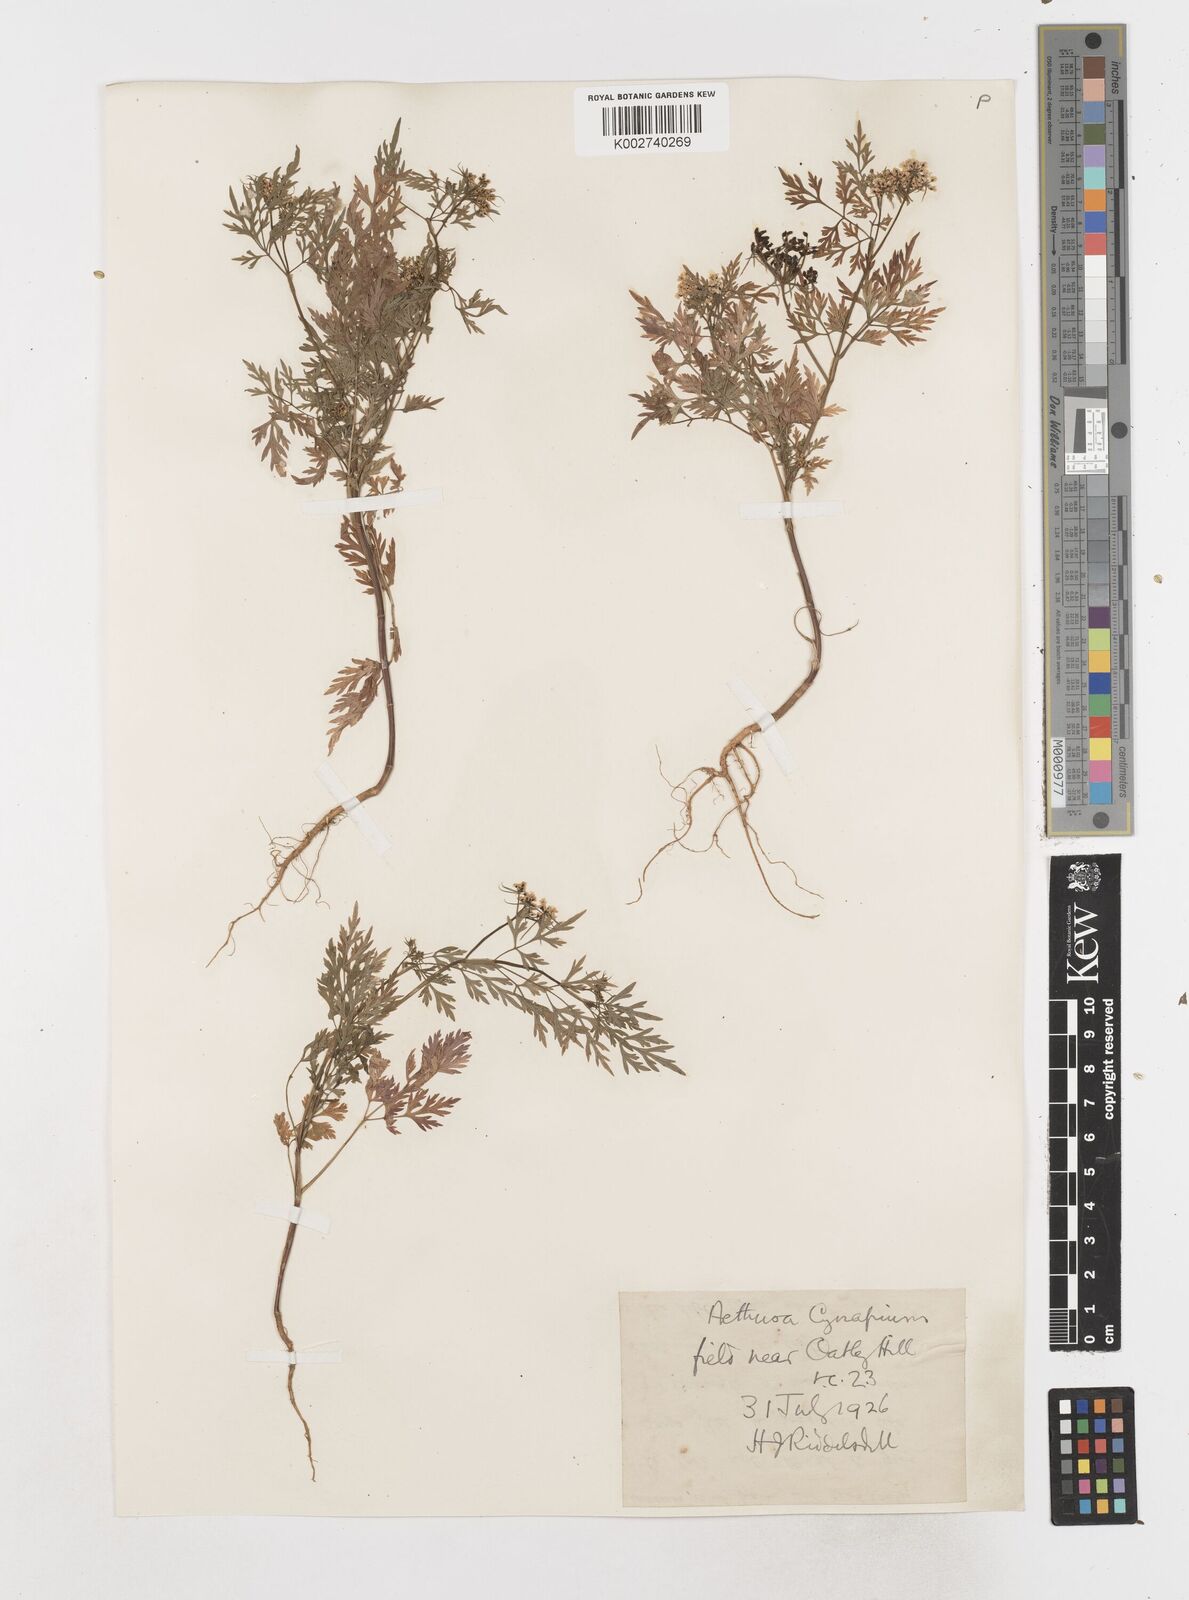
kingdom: Plantae
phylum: Tracheophyta
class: Magnoliopsida
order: Apiales
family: Apiaceae
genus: Aethusa
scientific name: Aethusa cynapium
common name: Fool's parsley
